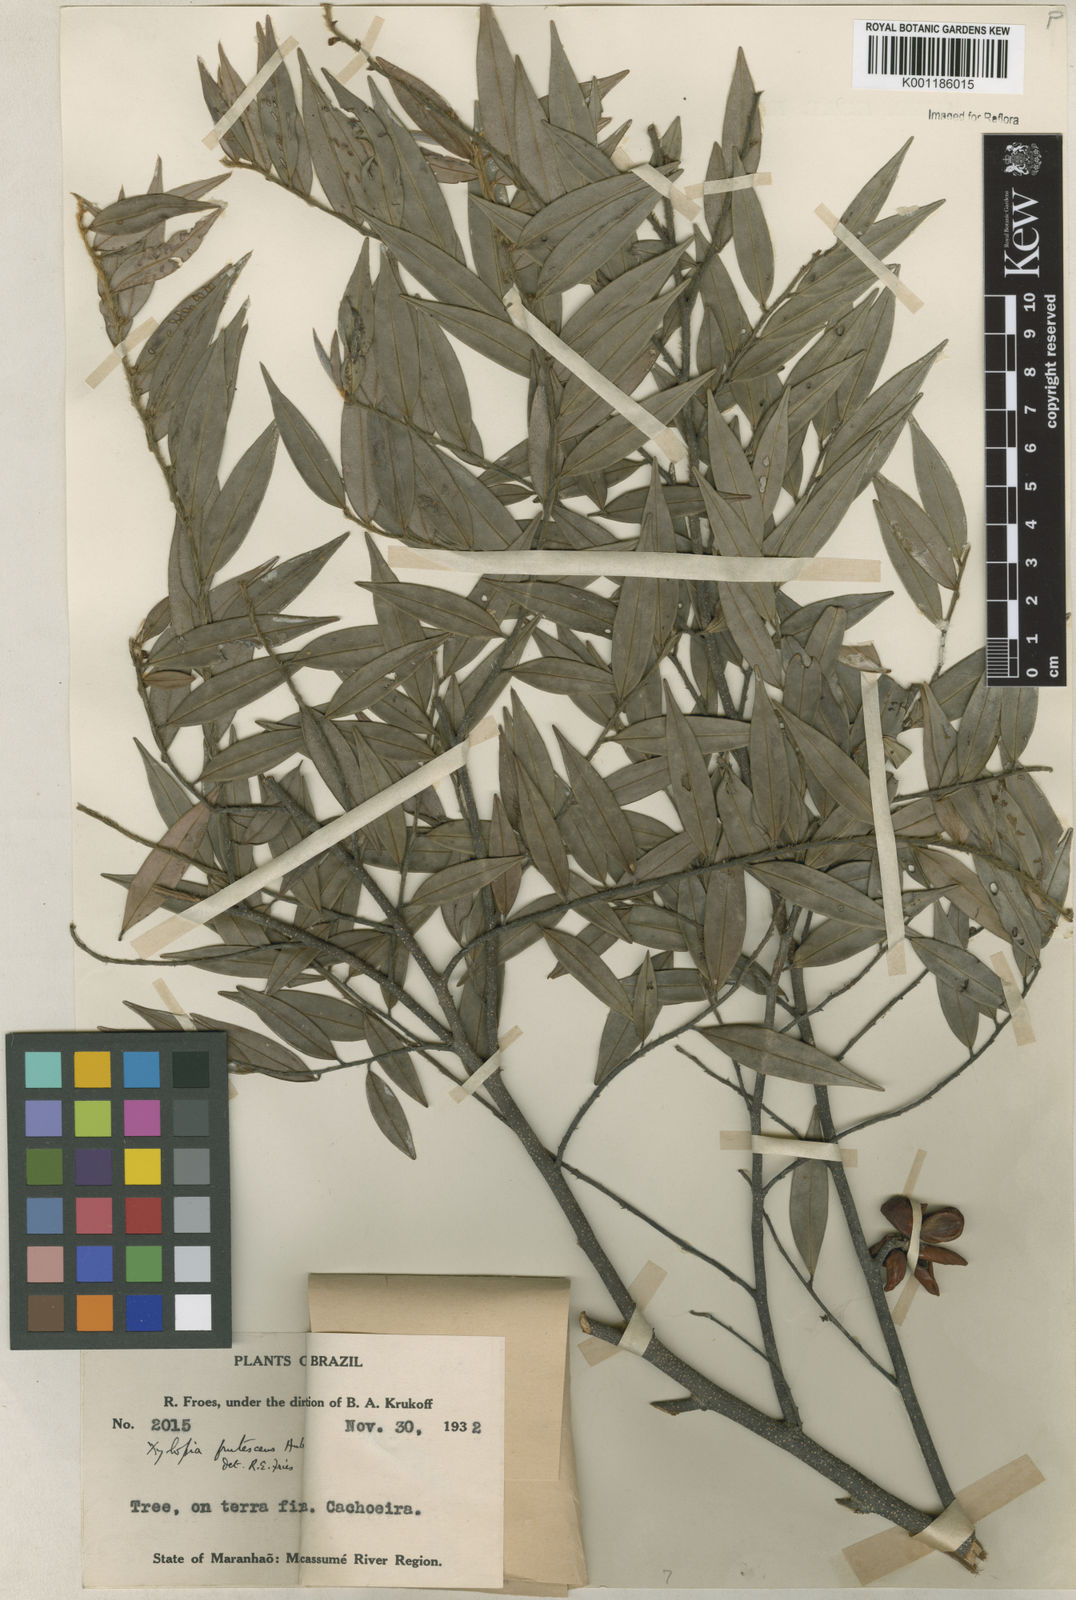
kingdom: Plantae
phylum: Tracheophyta
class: Magnoliopsida
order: Magnoliales
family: Annonaceae
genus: Xylopia
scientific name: Xylopia frutescens
